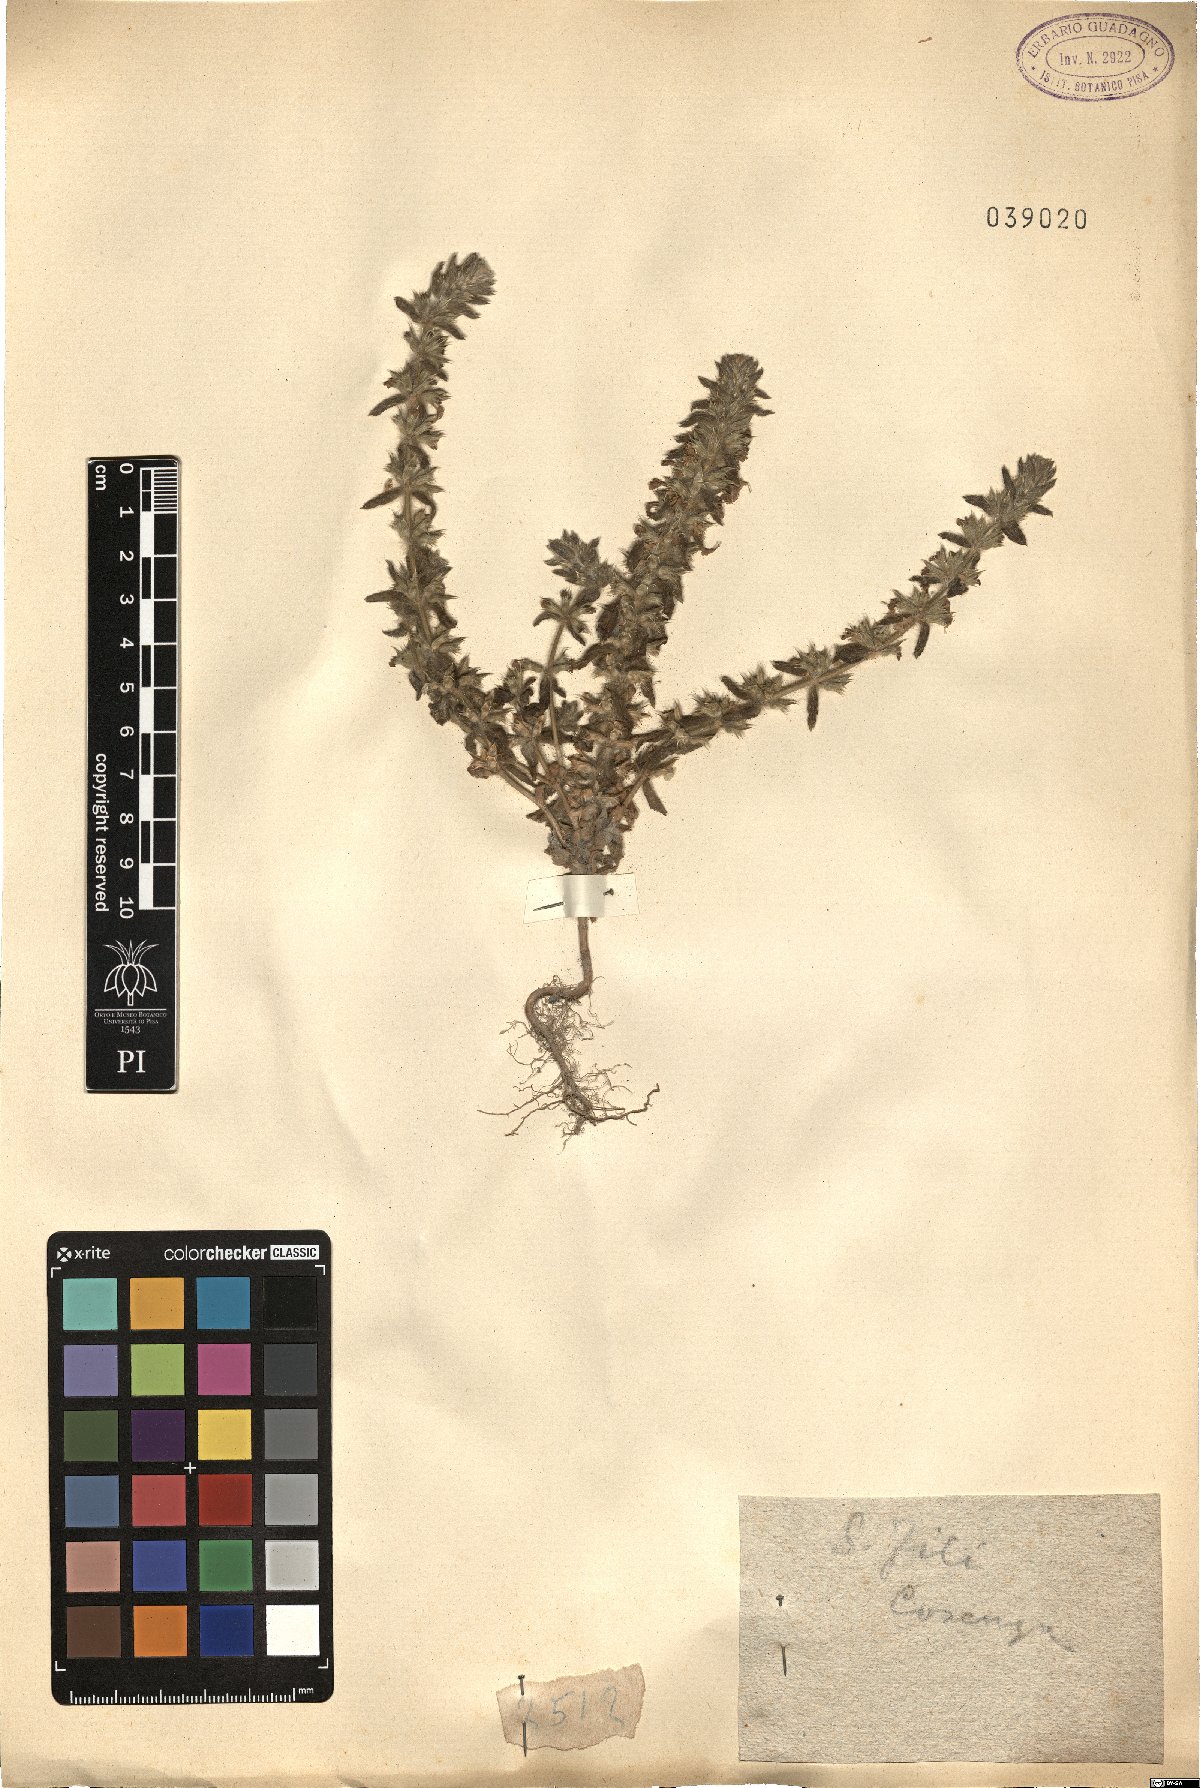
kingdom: Plantae
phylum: Tracheophyta
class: Magnoliopsida
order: Lamiales
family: Lamiaceae
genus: Sideritis
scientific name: Sideritis
